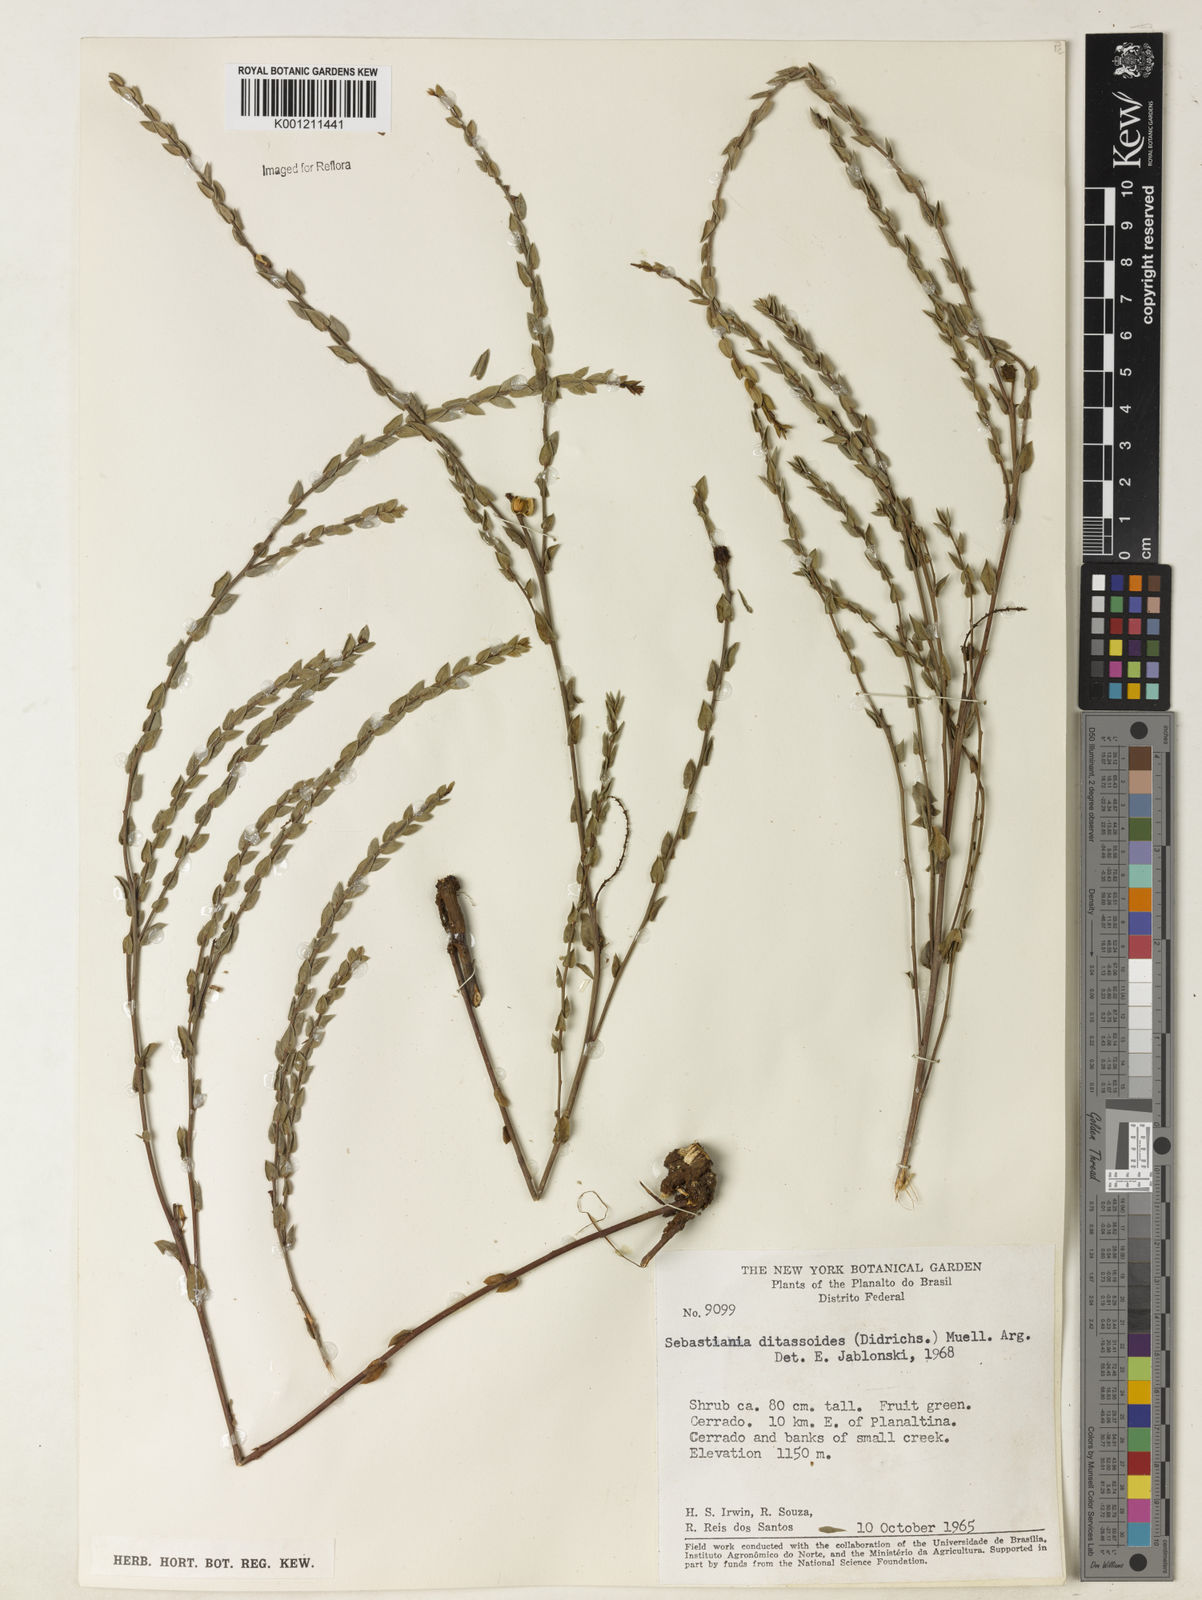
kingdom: Plantae
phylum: Tracheophyta
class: Magnoliopsida
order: Malpighiales
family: Euphorbiaceae
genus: Microstachys
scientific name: Microstachys ditassoides
